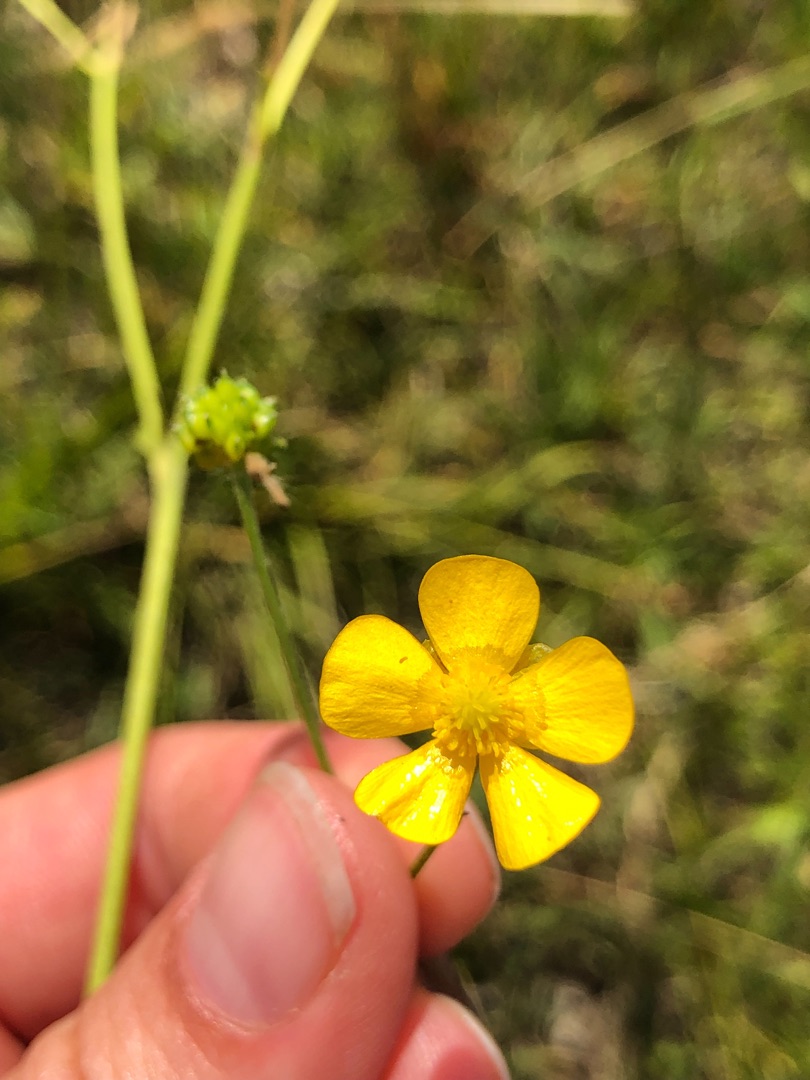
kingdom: Plantae
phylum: Tracheophyta
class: Magnoliopsida
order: Ranunculales
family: Ranunculaceae
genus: Ranunculus
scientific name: Ranunculus acris
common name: Bidende ranunkel
